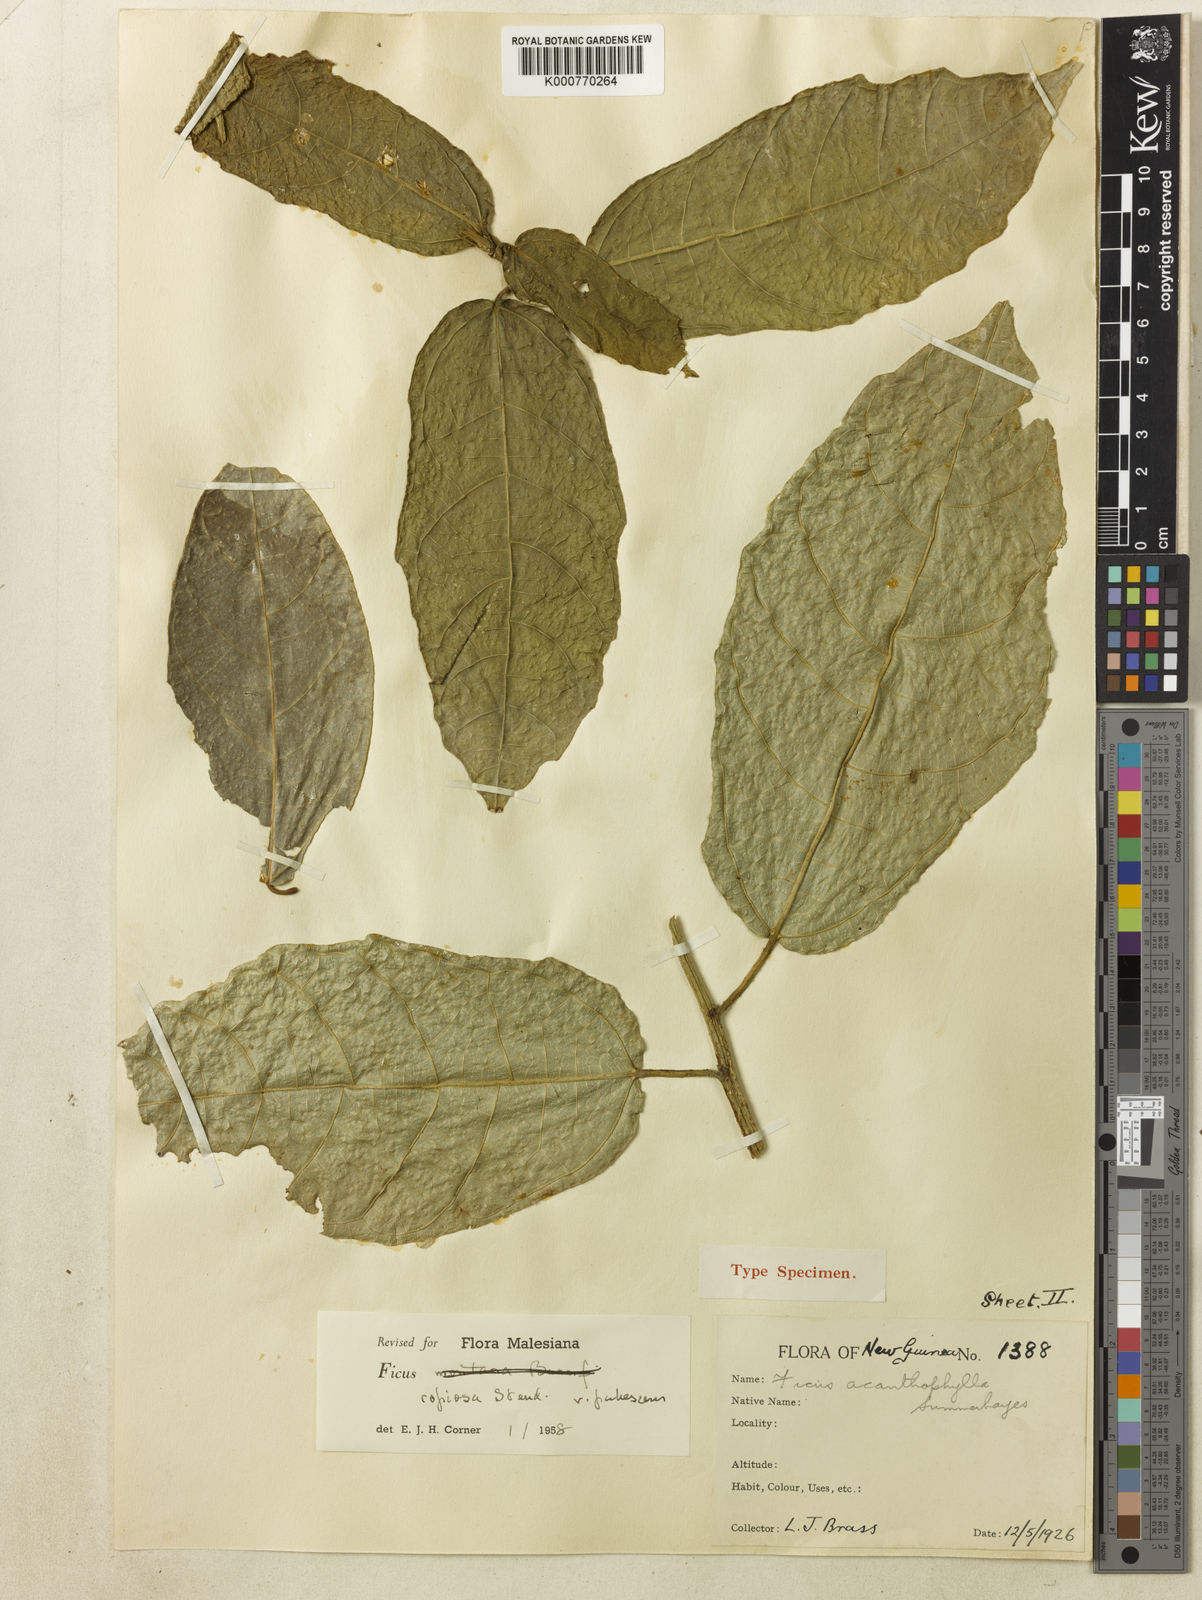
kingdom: Plantae
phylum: Tracheophyta
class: Magnoliopsida
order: Rosales
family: Moraceae
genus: Ficus
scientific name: Ficus copiosa
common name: Plentiful fig
